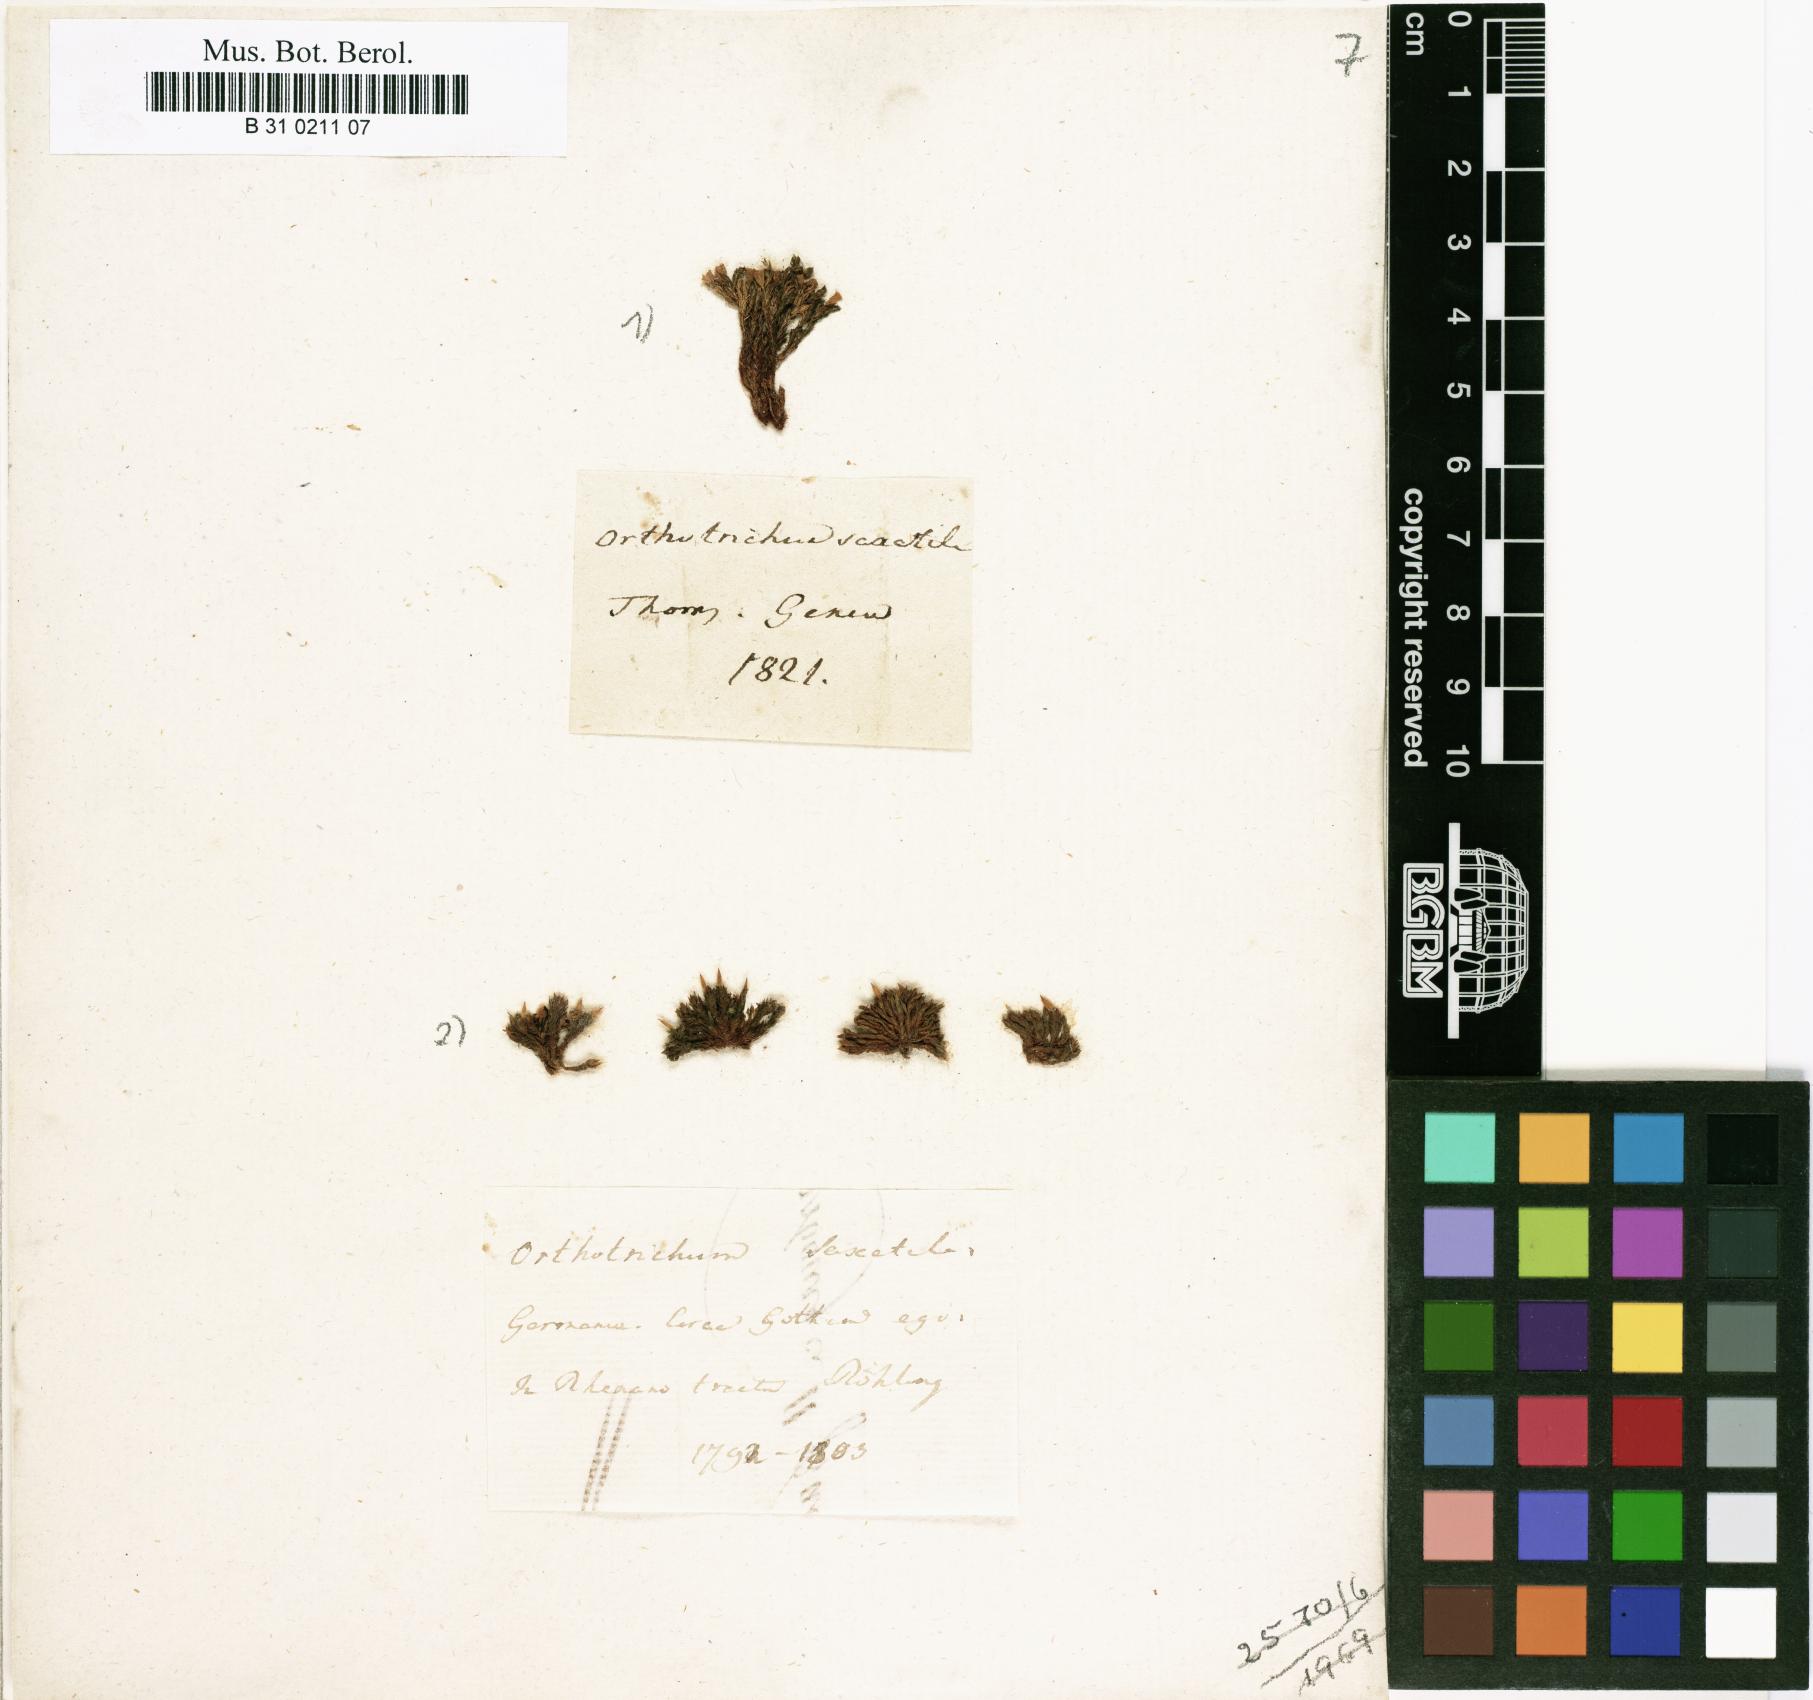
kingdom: Plantae
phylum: Bryophyta
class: Bryopsida
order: Orthotrichales
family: Orthotrichaceae
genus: Orthotrichum
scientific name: Orthotrichum anomalum
